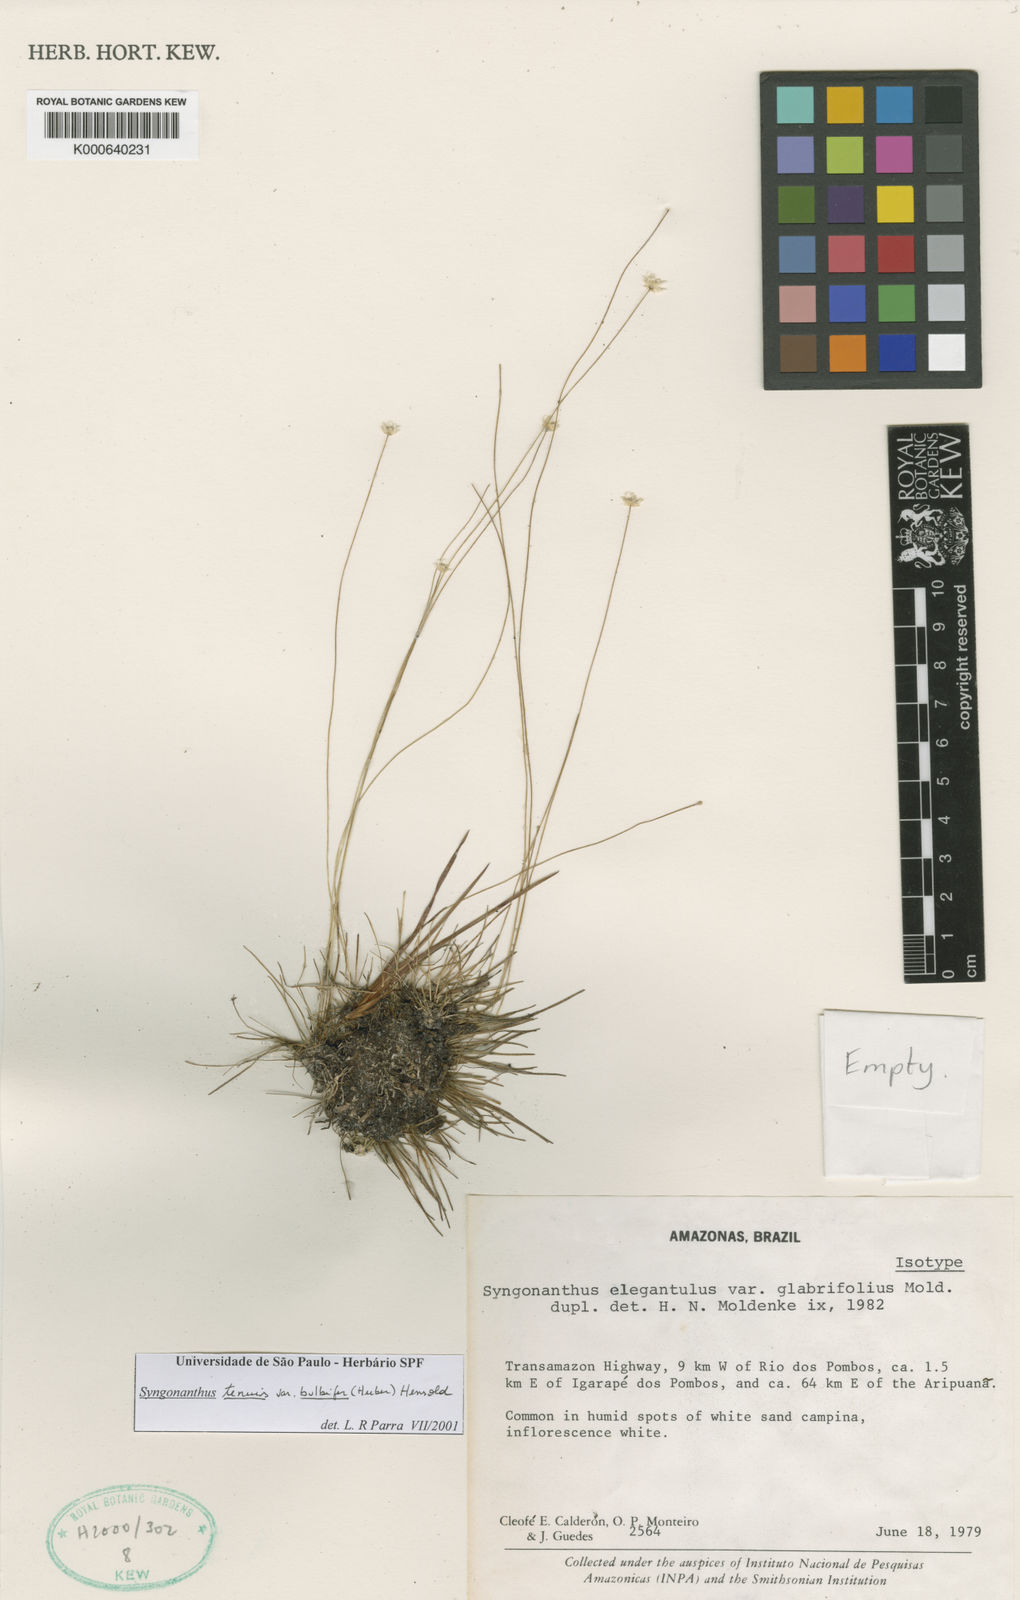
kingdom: Plantae
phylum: Tracheophyta
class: Liliopsida
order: Poales
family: Eriocaulaceae
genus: Syngonanthus
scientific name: Syngonanthus tenuis
